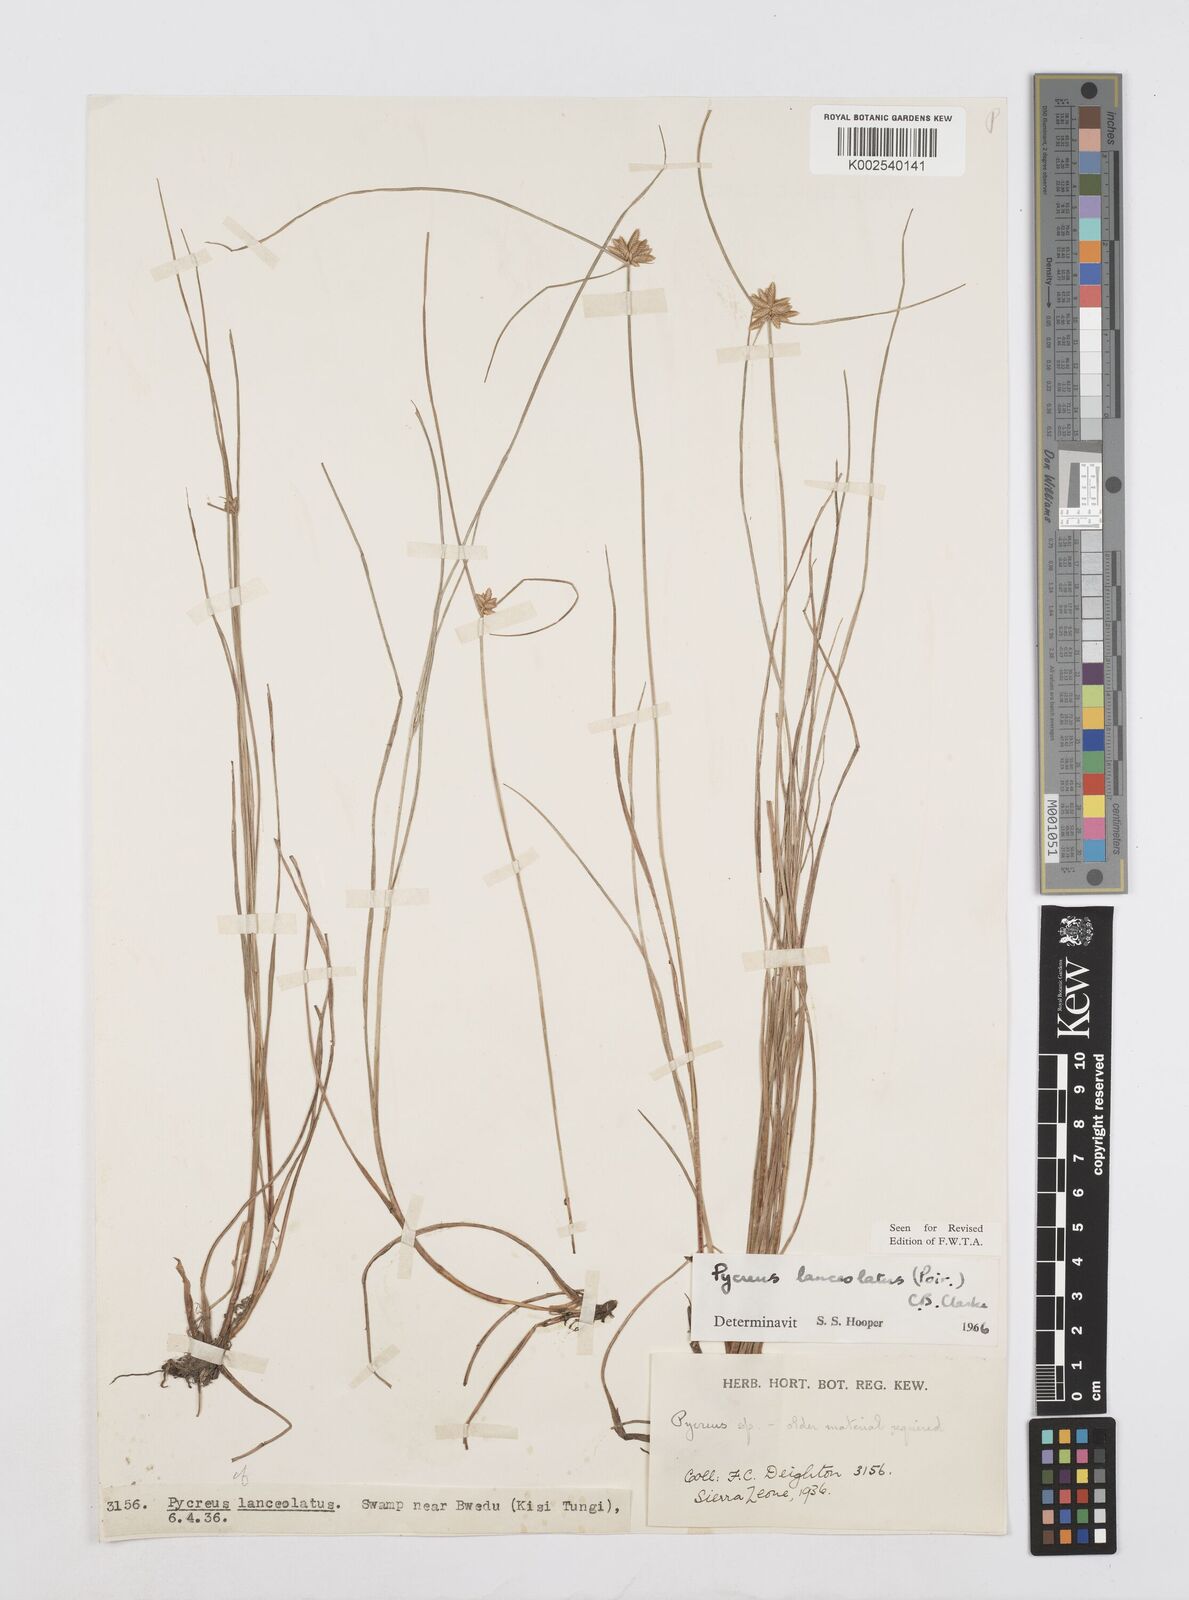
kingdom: Plantae
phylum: Tracheophyta
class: Liliopsida
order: Poales
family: Cyperaceae
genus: Cyperus
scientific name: Cyperus
